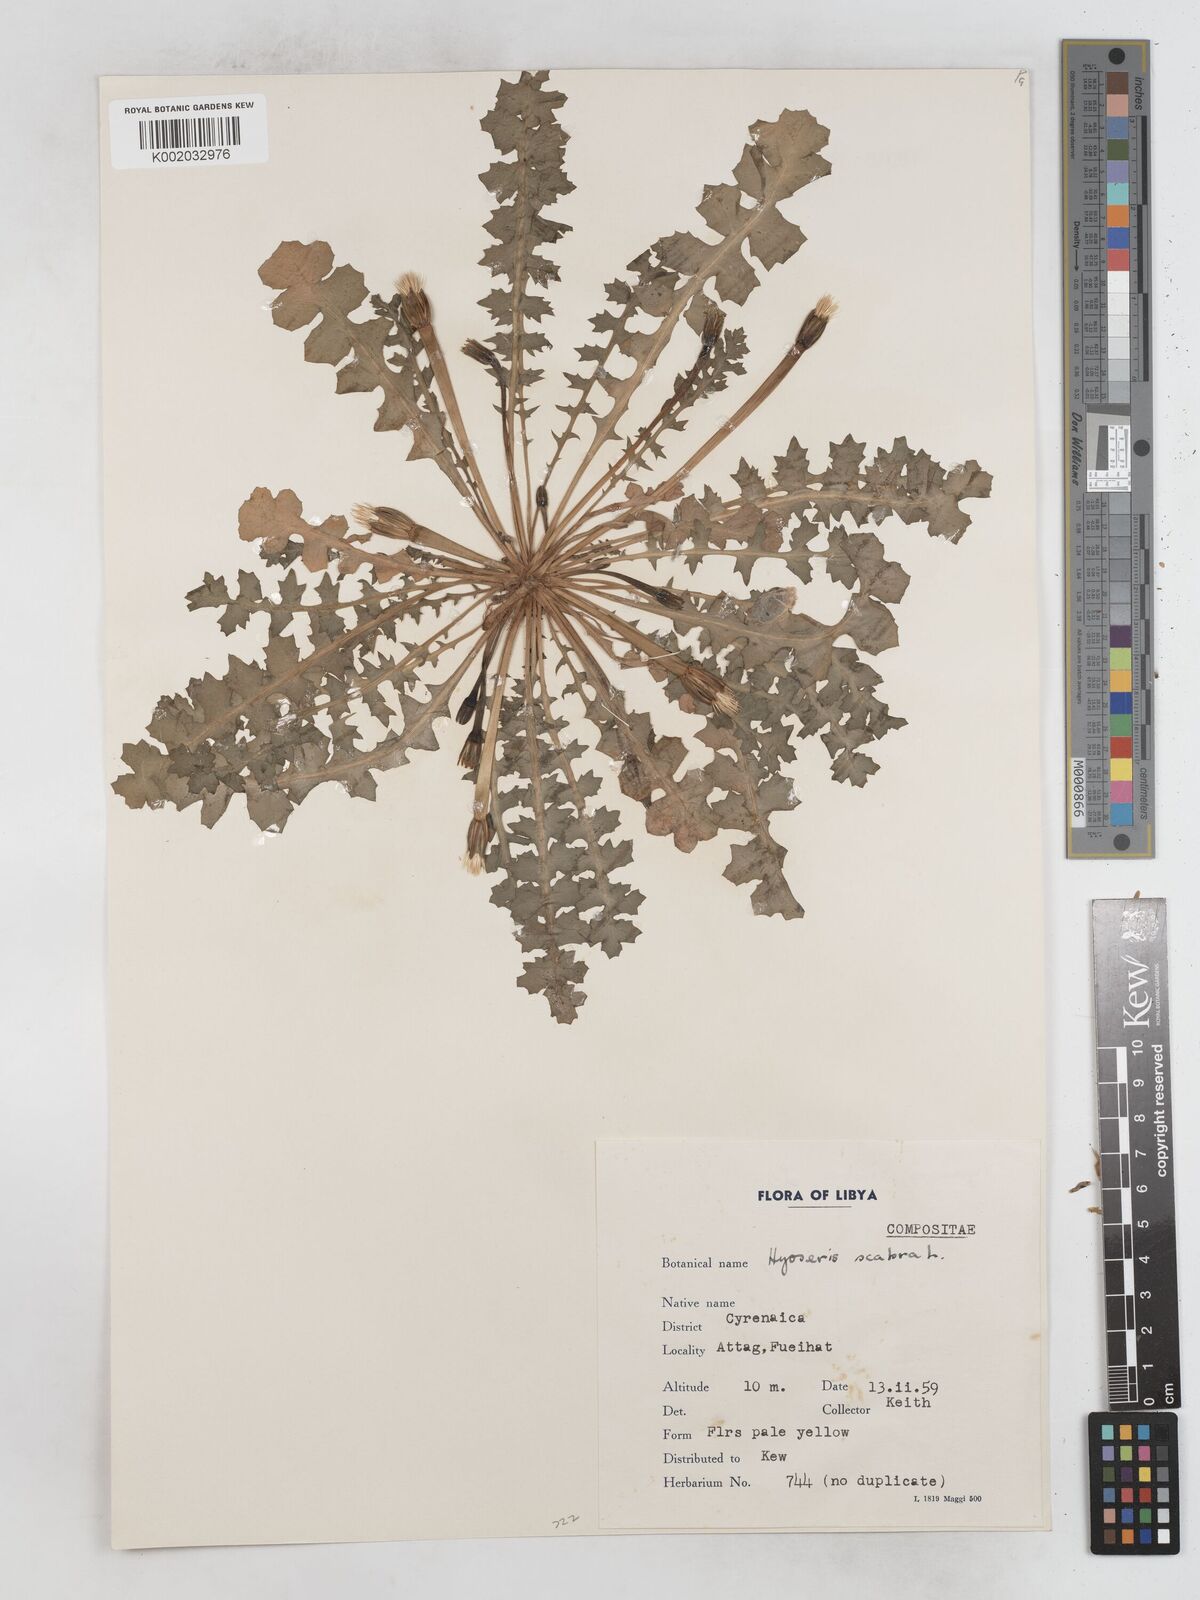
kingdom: Plantae
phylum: Tracheophyta
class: Magnoliopsida
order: Asterales
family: Asteraceae
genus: Hyoseris
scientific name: Hyoseris scabra
